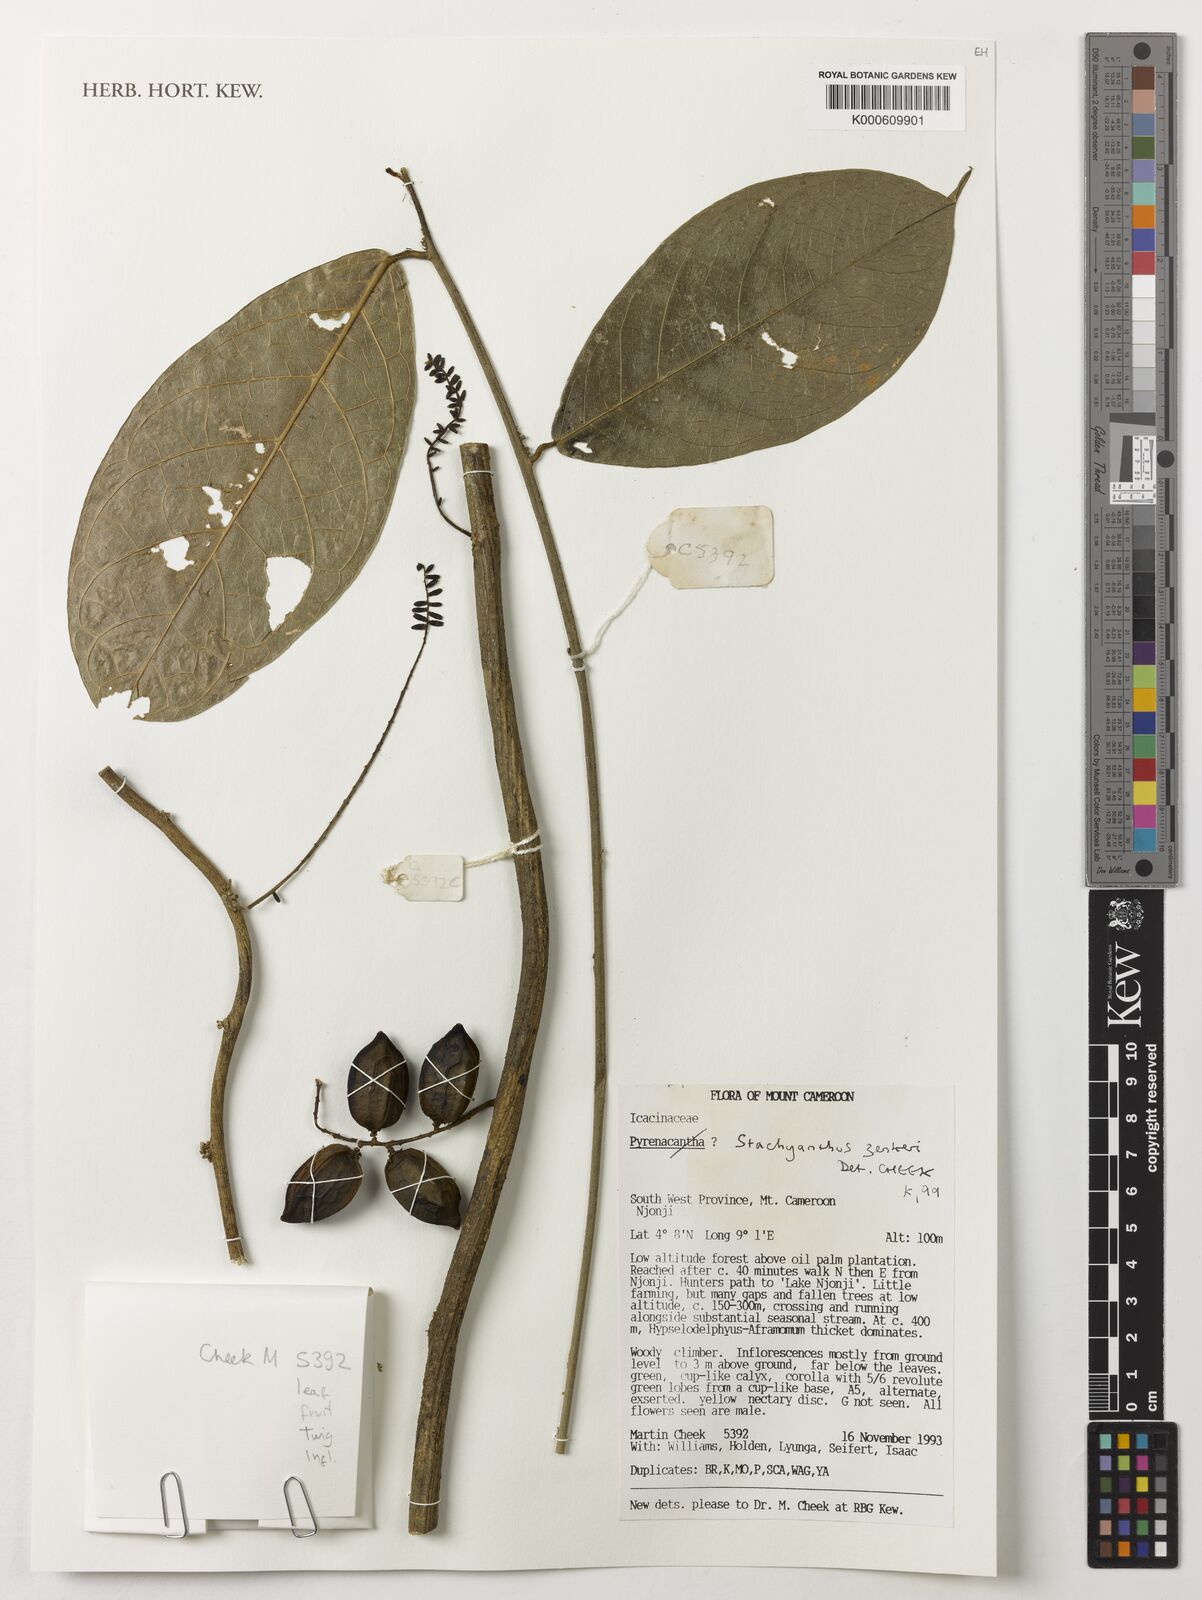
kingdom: Plantae
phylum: Tracheophyta
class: Magnoliopsida
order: Icacinales
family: Icacinaceae
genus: Stachyanthus
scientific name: Stachyanthus zenkeri
